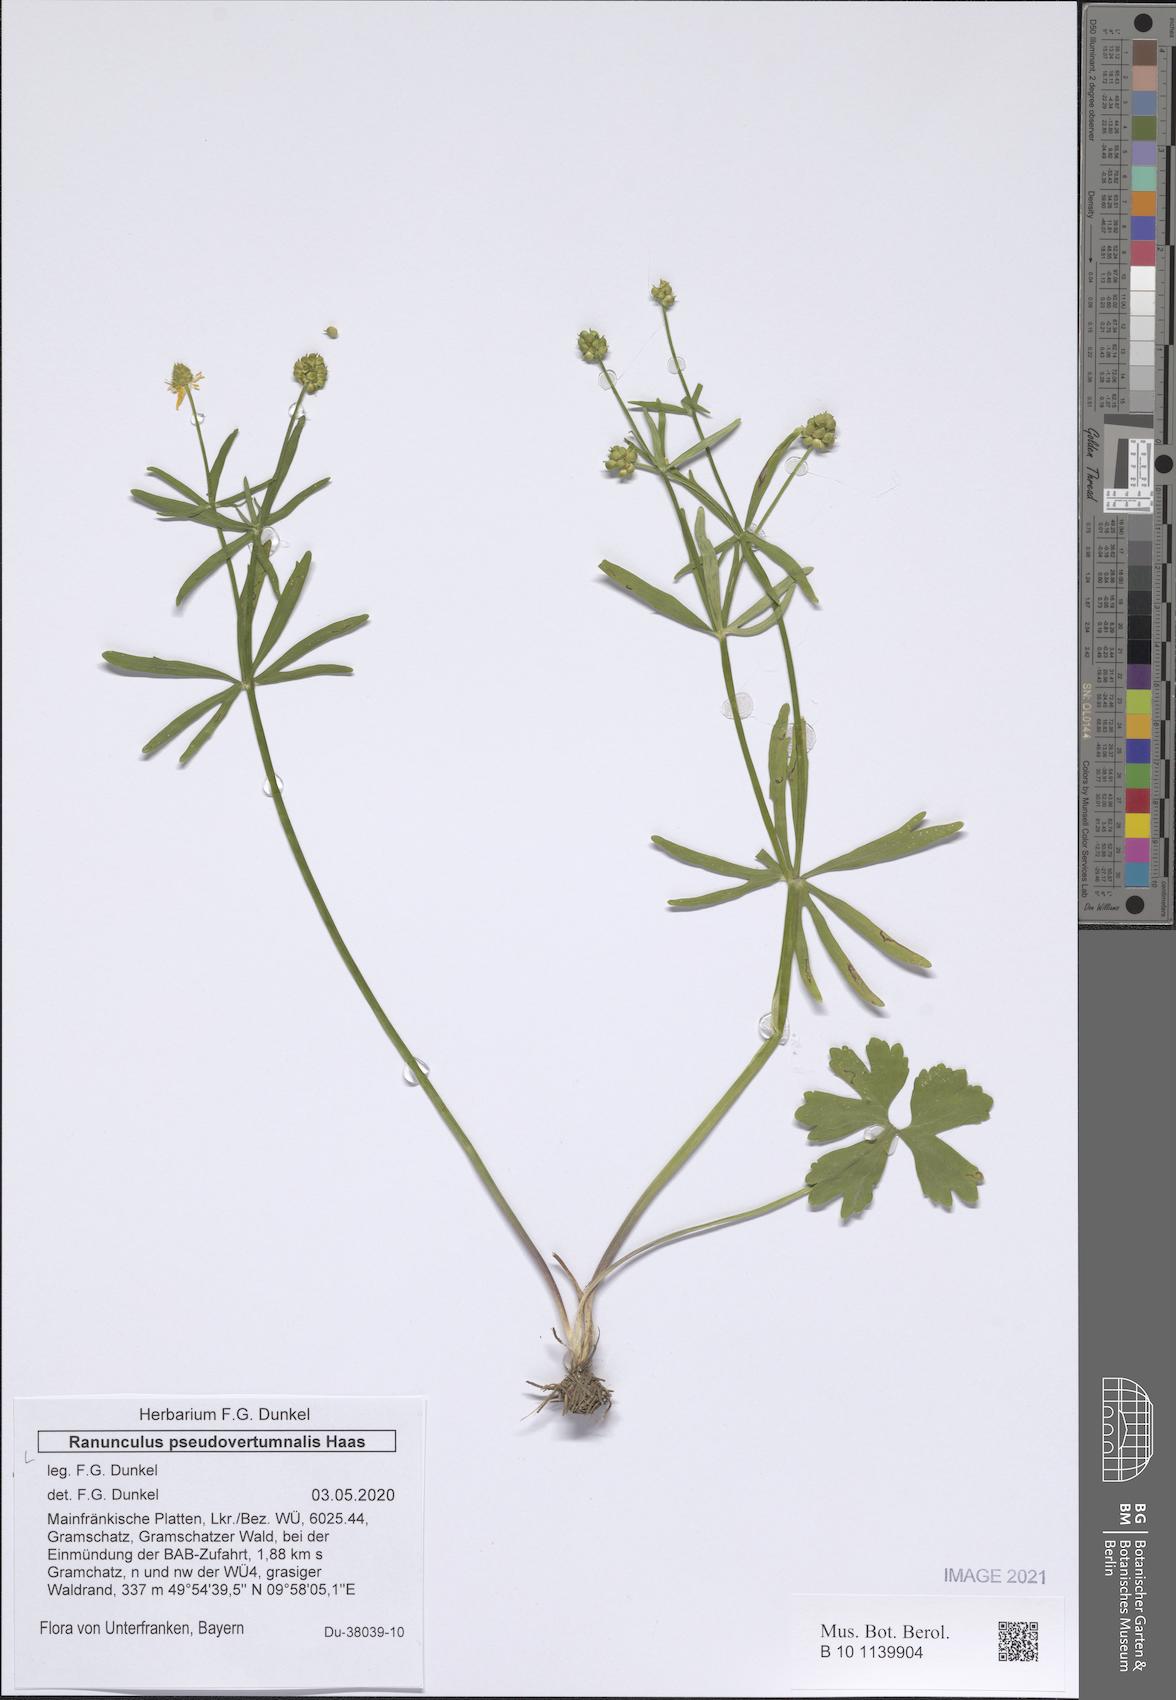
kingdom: Plantae
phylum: Tracheophyta
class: Magnoliopsida
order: Ranunculales
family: Ranunculaceae
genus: Ranunculus
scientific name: Ranunculus pseudovertumnalis
